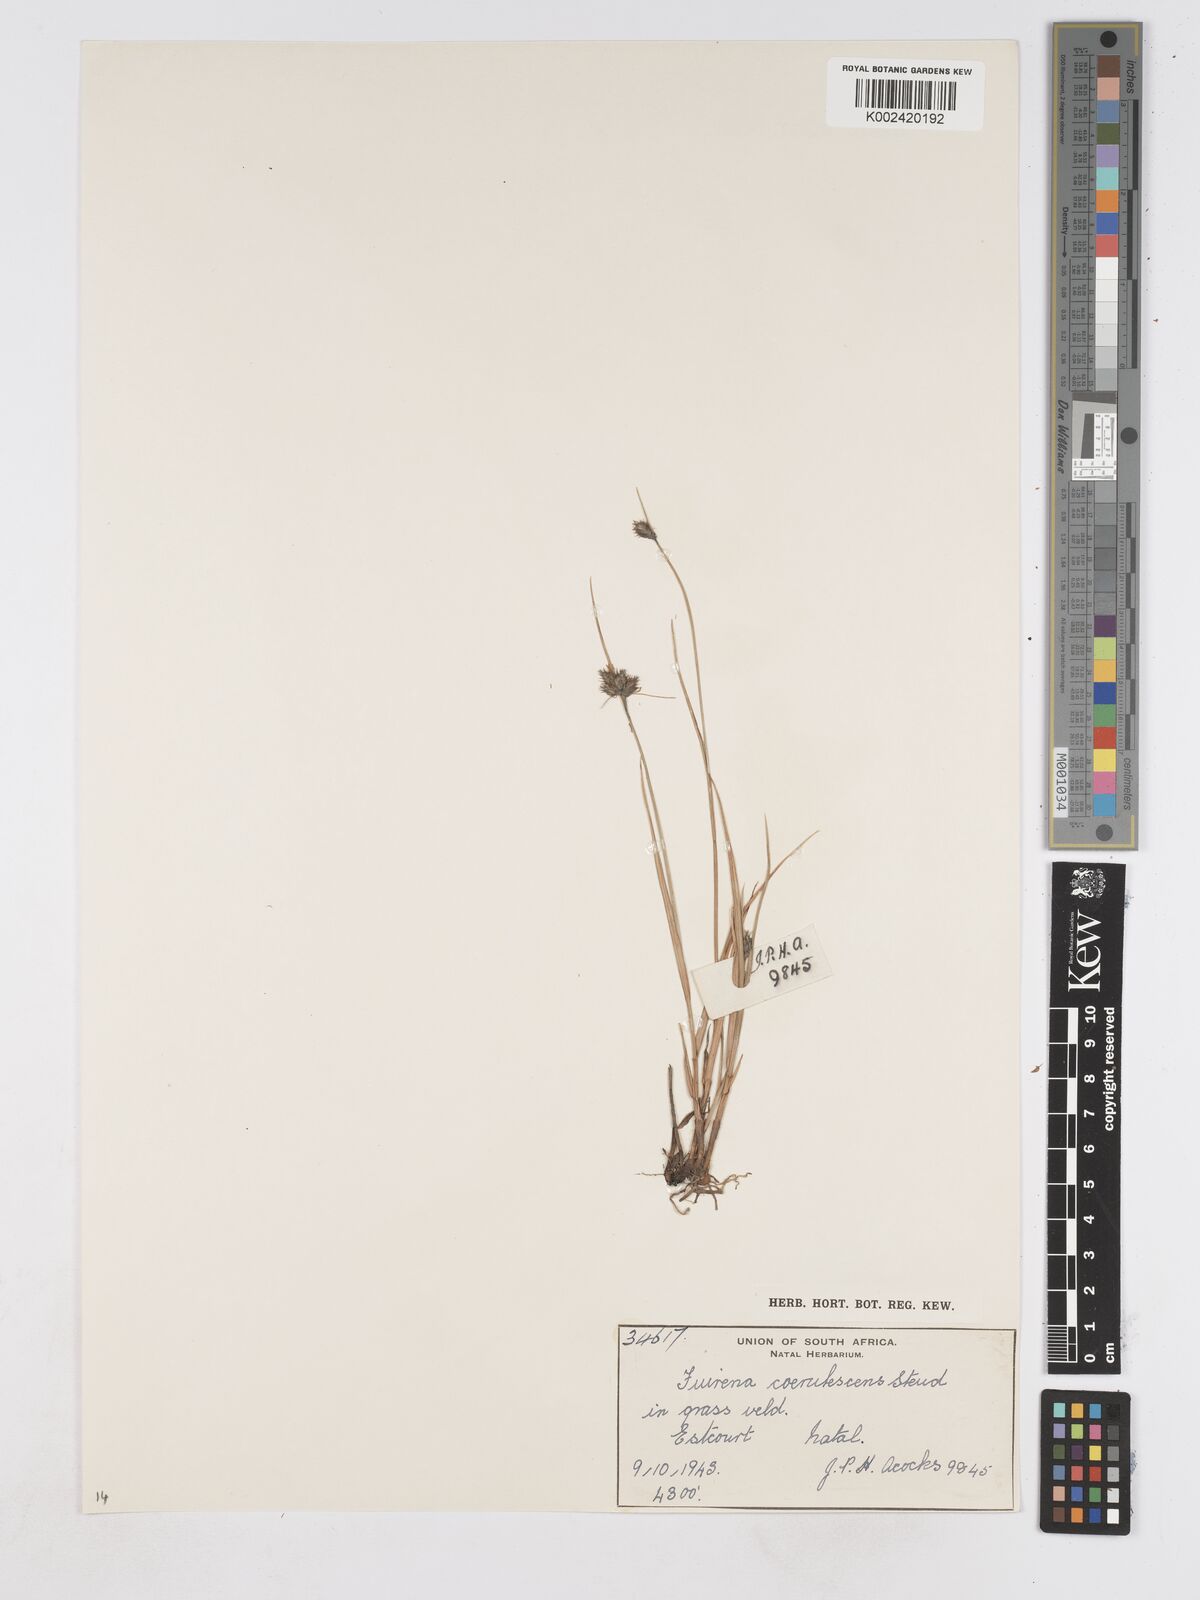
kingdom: Plantae
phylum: Tracheophyta
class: Liliopsida
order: Poales
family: Cyperaceae
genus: Fuirena
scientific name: Fuirena coerulescens
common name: Blue umbrella-sedge
